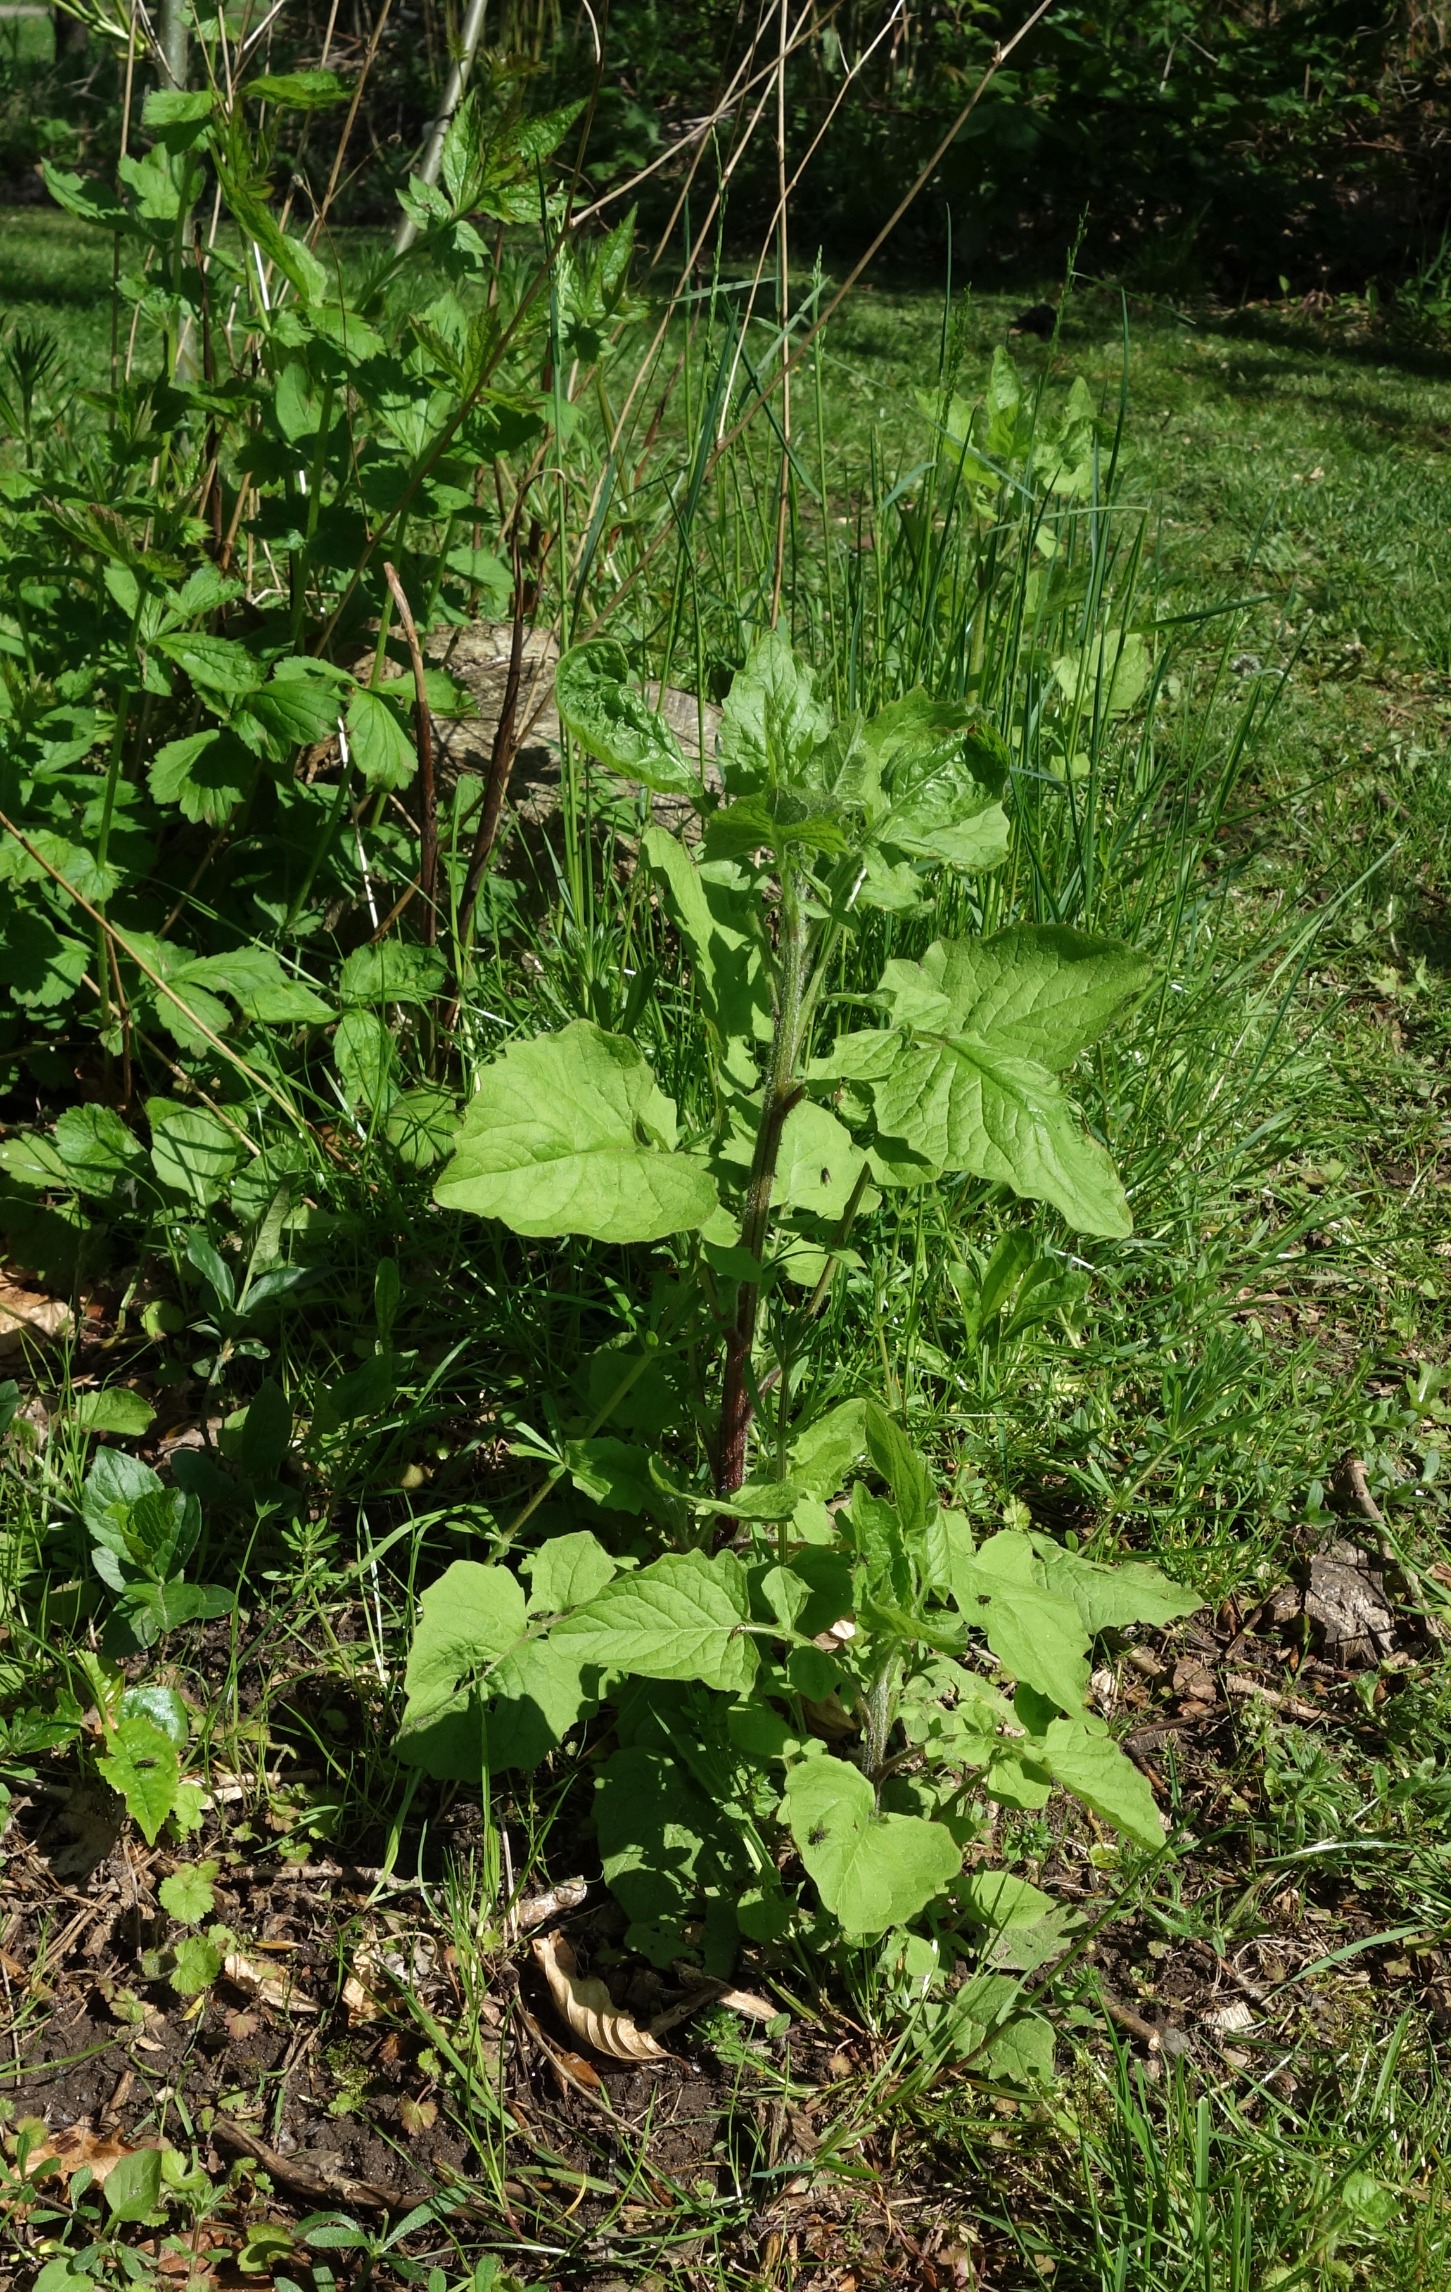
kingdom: Plantae
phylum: Tracheophyta
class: Magnoliopsida
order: Asterales
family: Asteraceae
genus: Lapsana
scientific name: Lapsana communis
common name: Haremad
